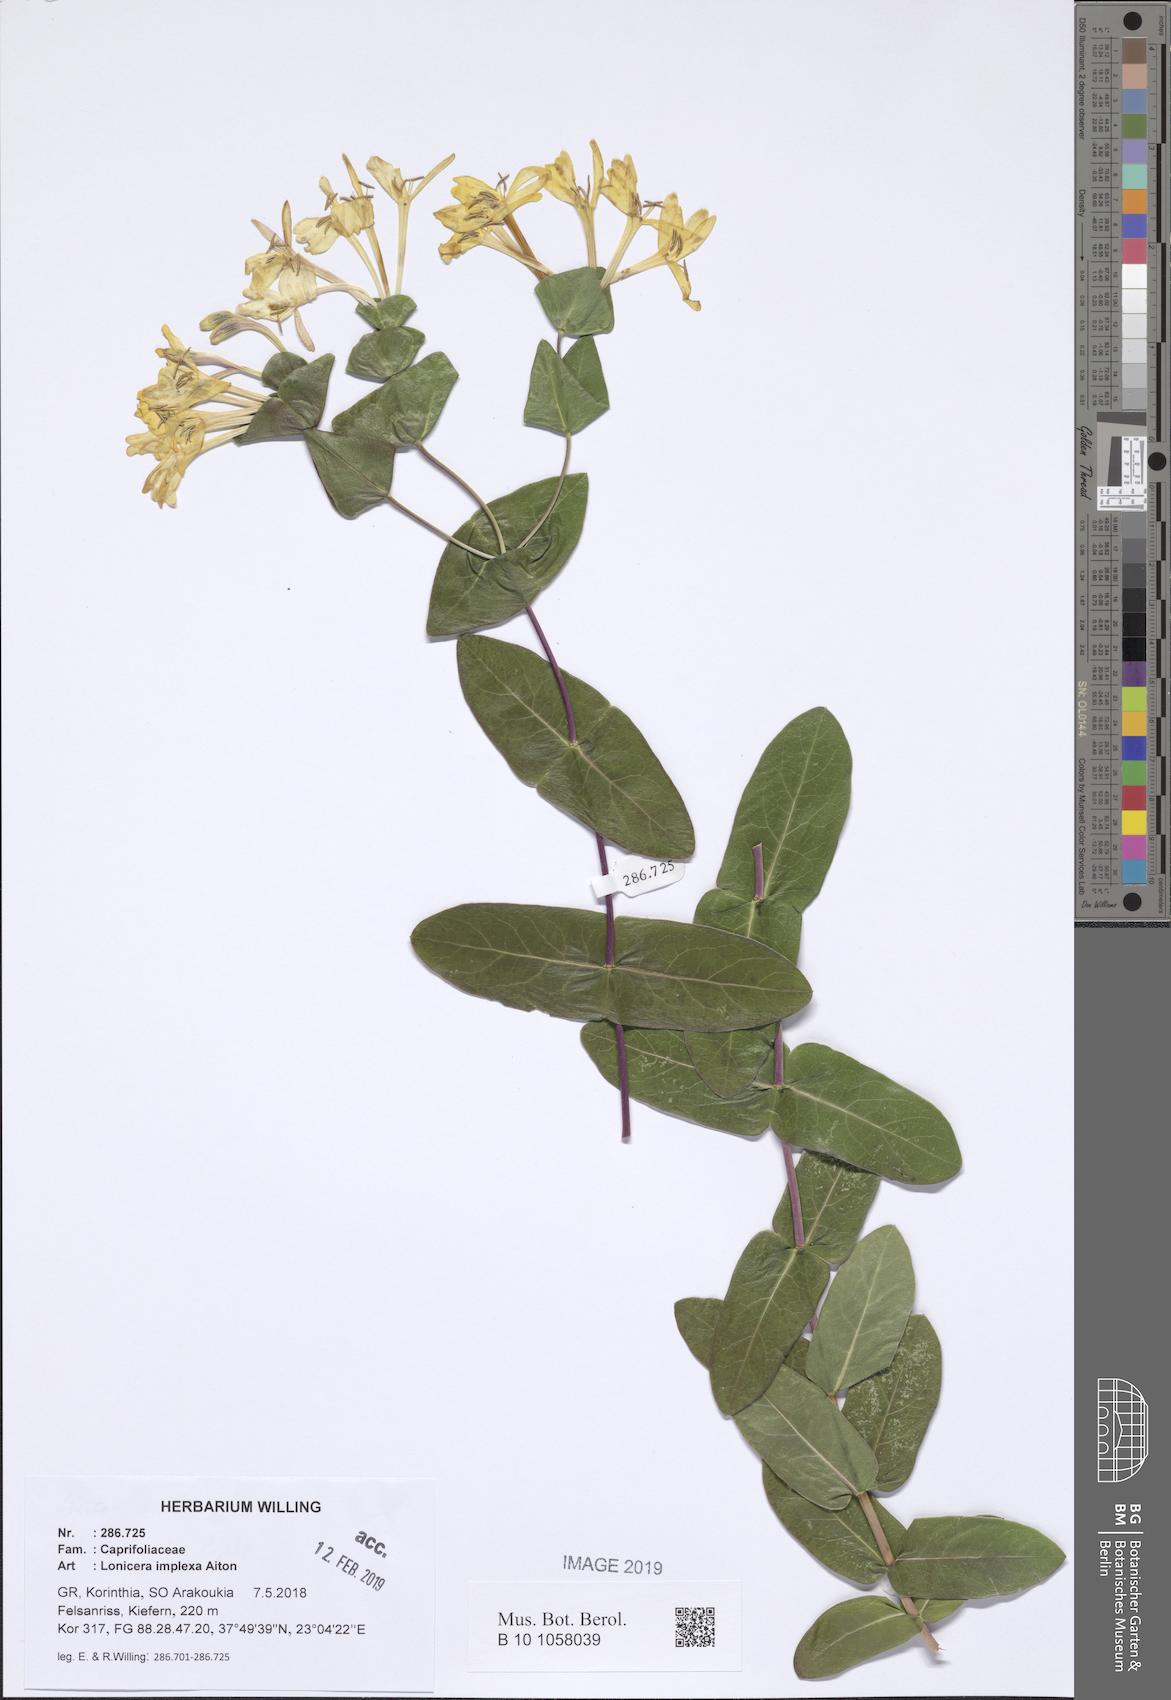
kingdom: Plantae
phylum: Tracheophyta
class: Magnoliopsida
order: Dipsacales
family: Caprifoliaceae
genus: Lonicera
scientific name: Lonicera implexa
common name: Minorca honeysuckle
